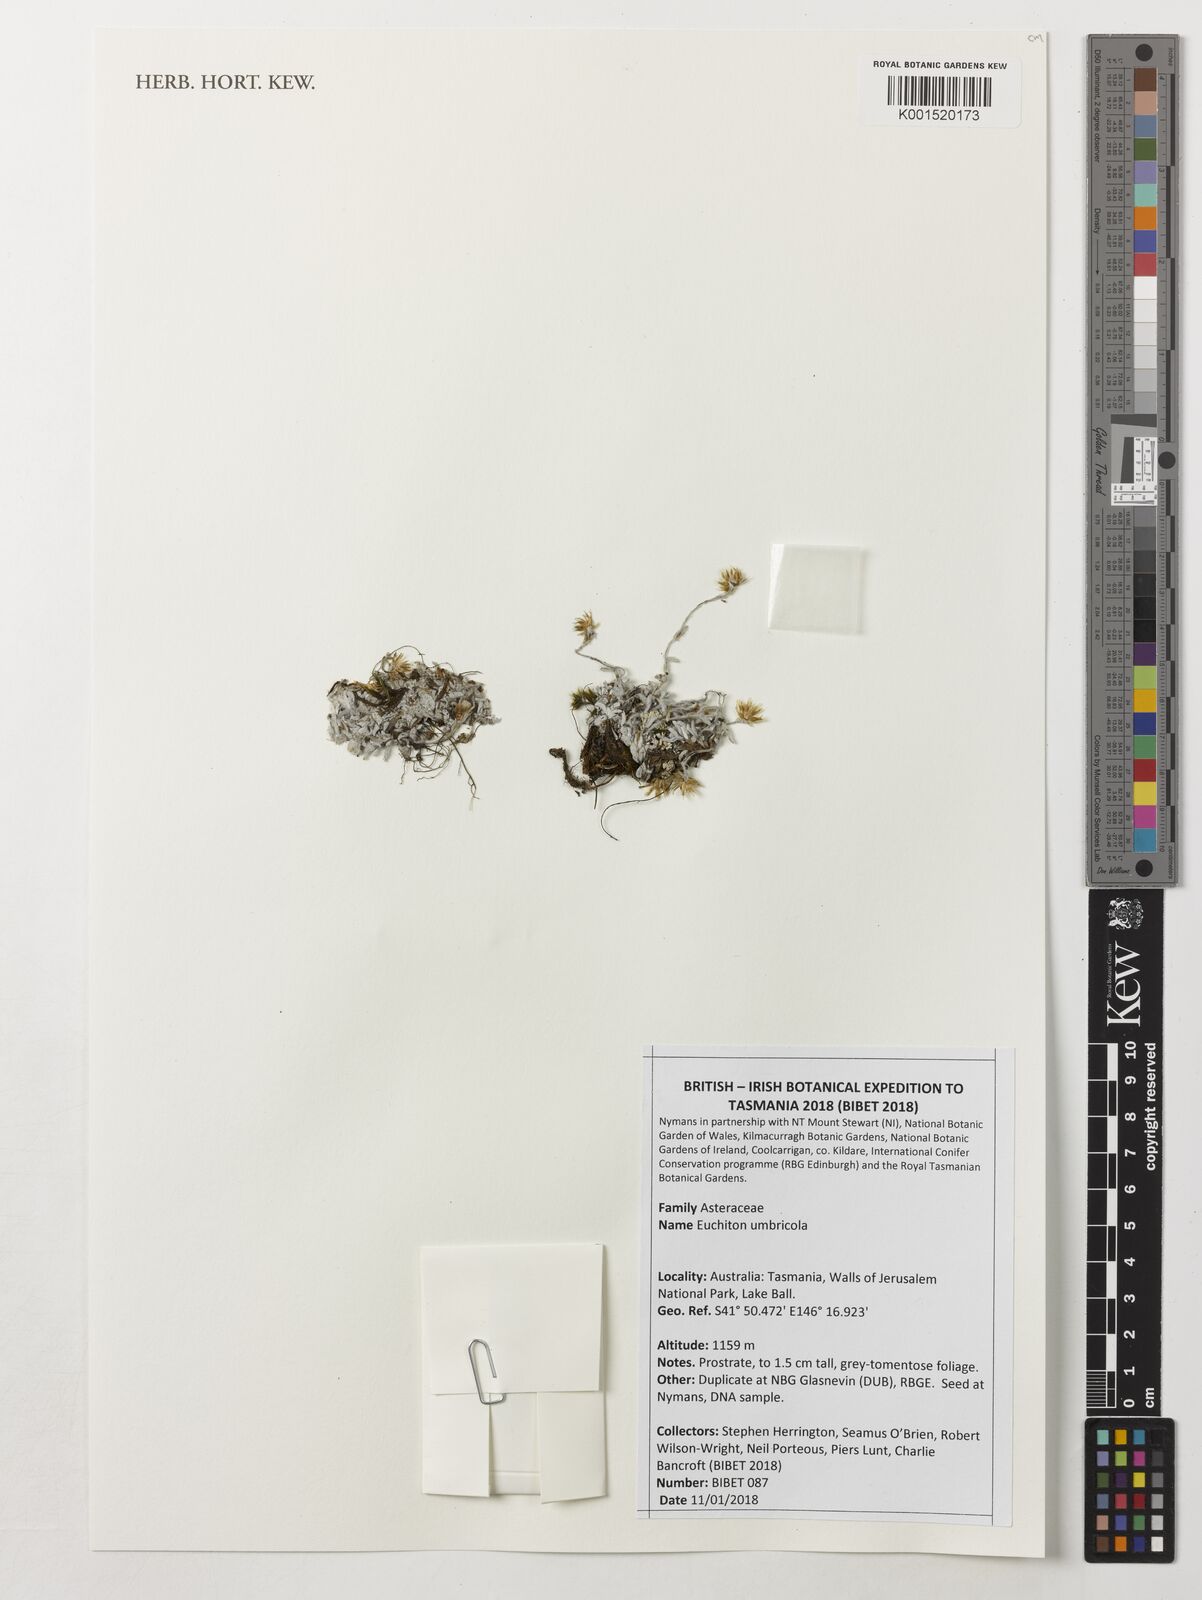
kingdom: Plantae
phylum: Tracheophyta
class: Magnoliopsida
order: Asterales
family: Asteraceae
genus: Euchiton
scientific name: Euchiton umbricola
